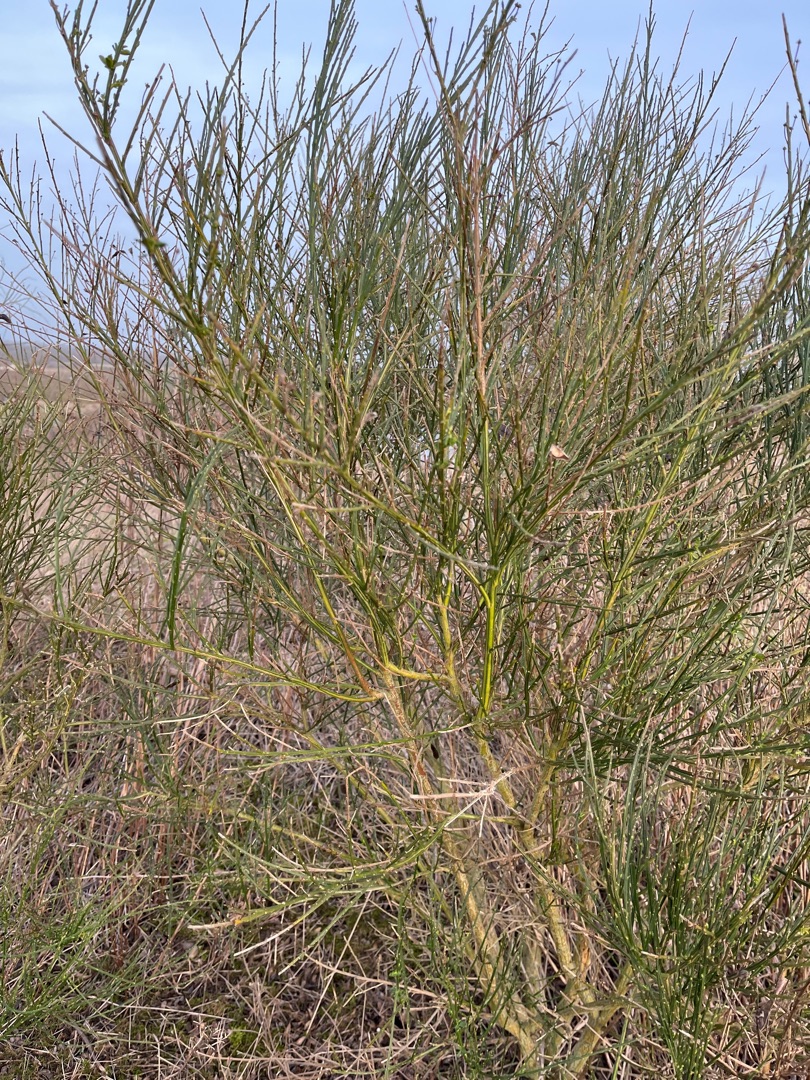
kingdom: Plantae
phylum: Tracheophyta
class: Magnoliopsida
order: Fabales
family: Fabaceae
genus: Cytisus
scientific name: Cytisus scoparius
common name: Almindelig gyvel
